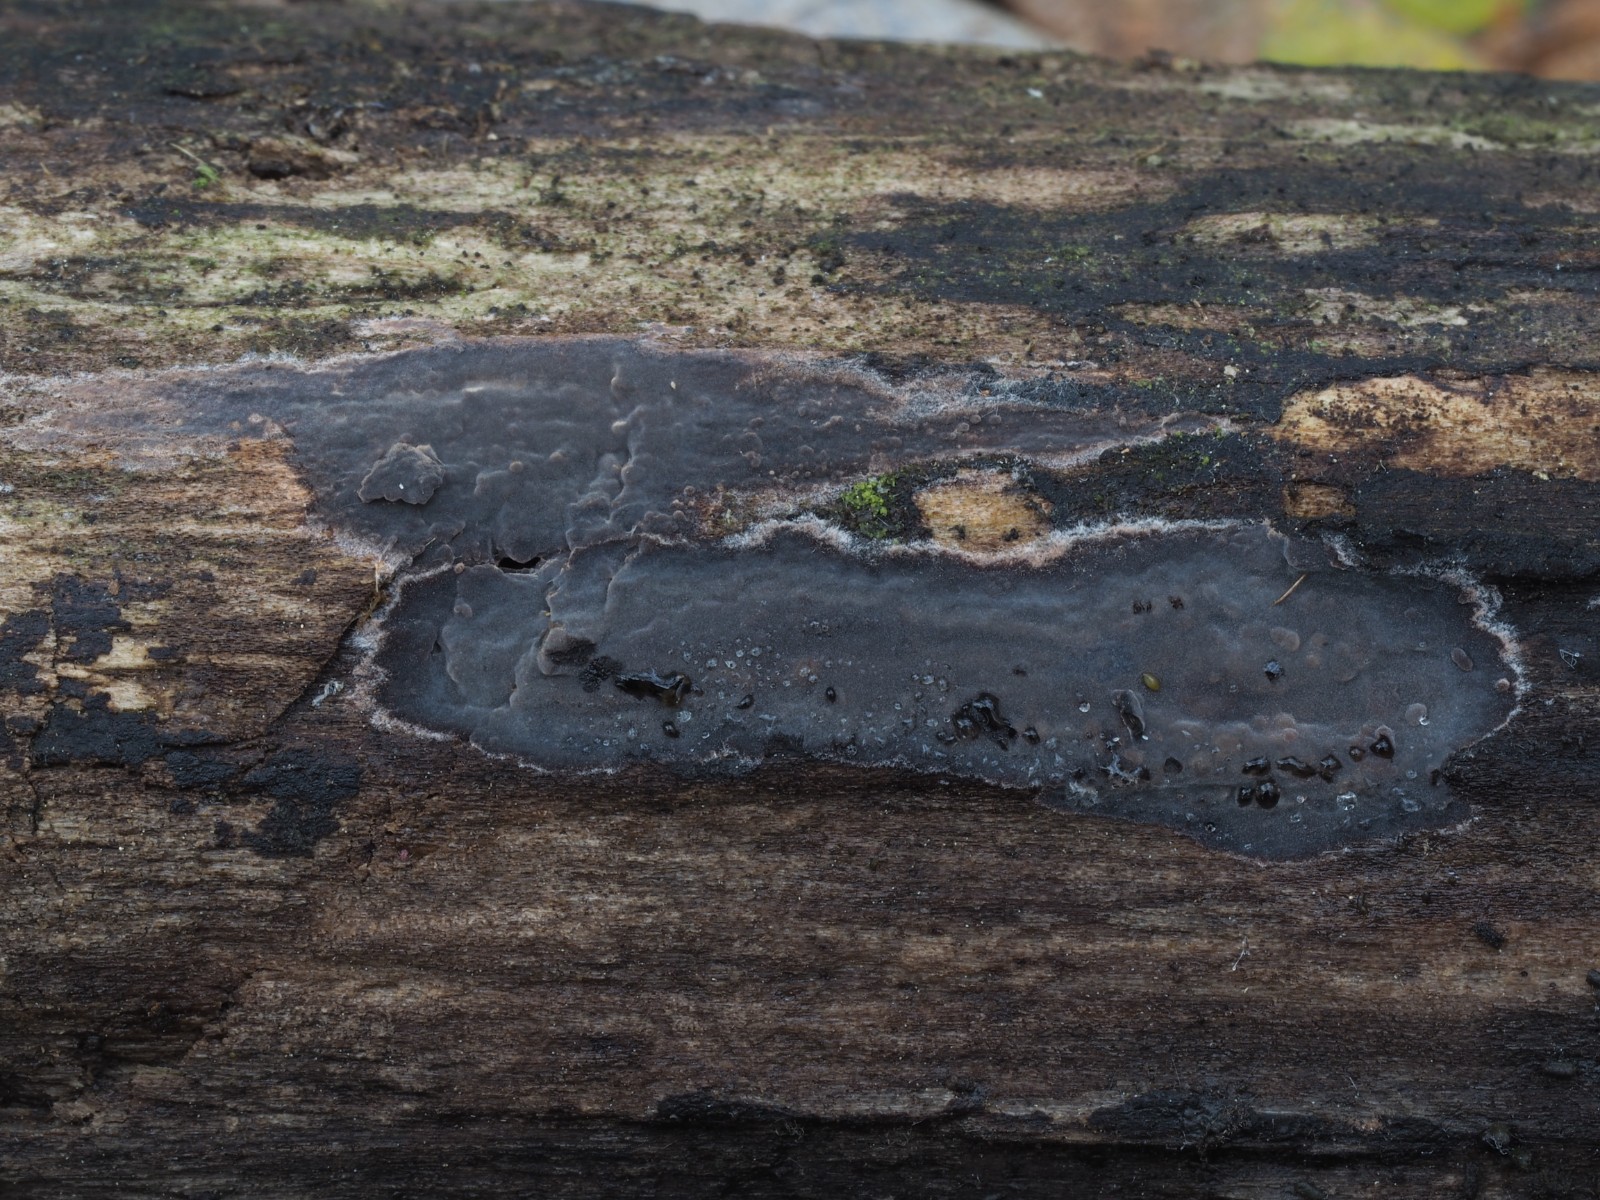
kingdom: Fungi
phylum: Basidiomycota
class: Agaricomycetes
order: Russulales
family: Peniophoraceae
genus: Peniophora
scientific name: Peniophora
